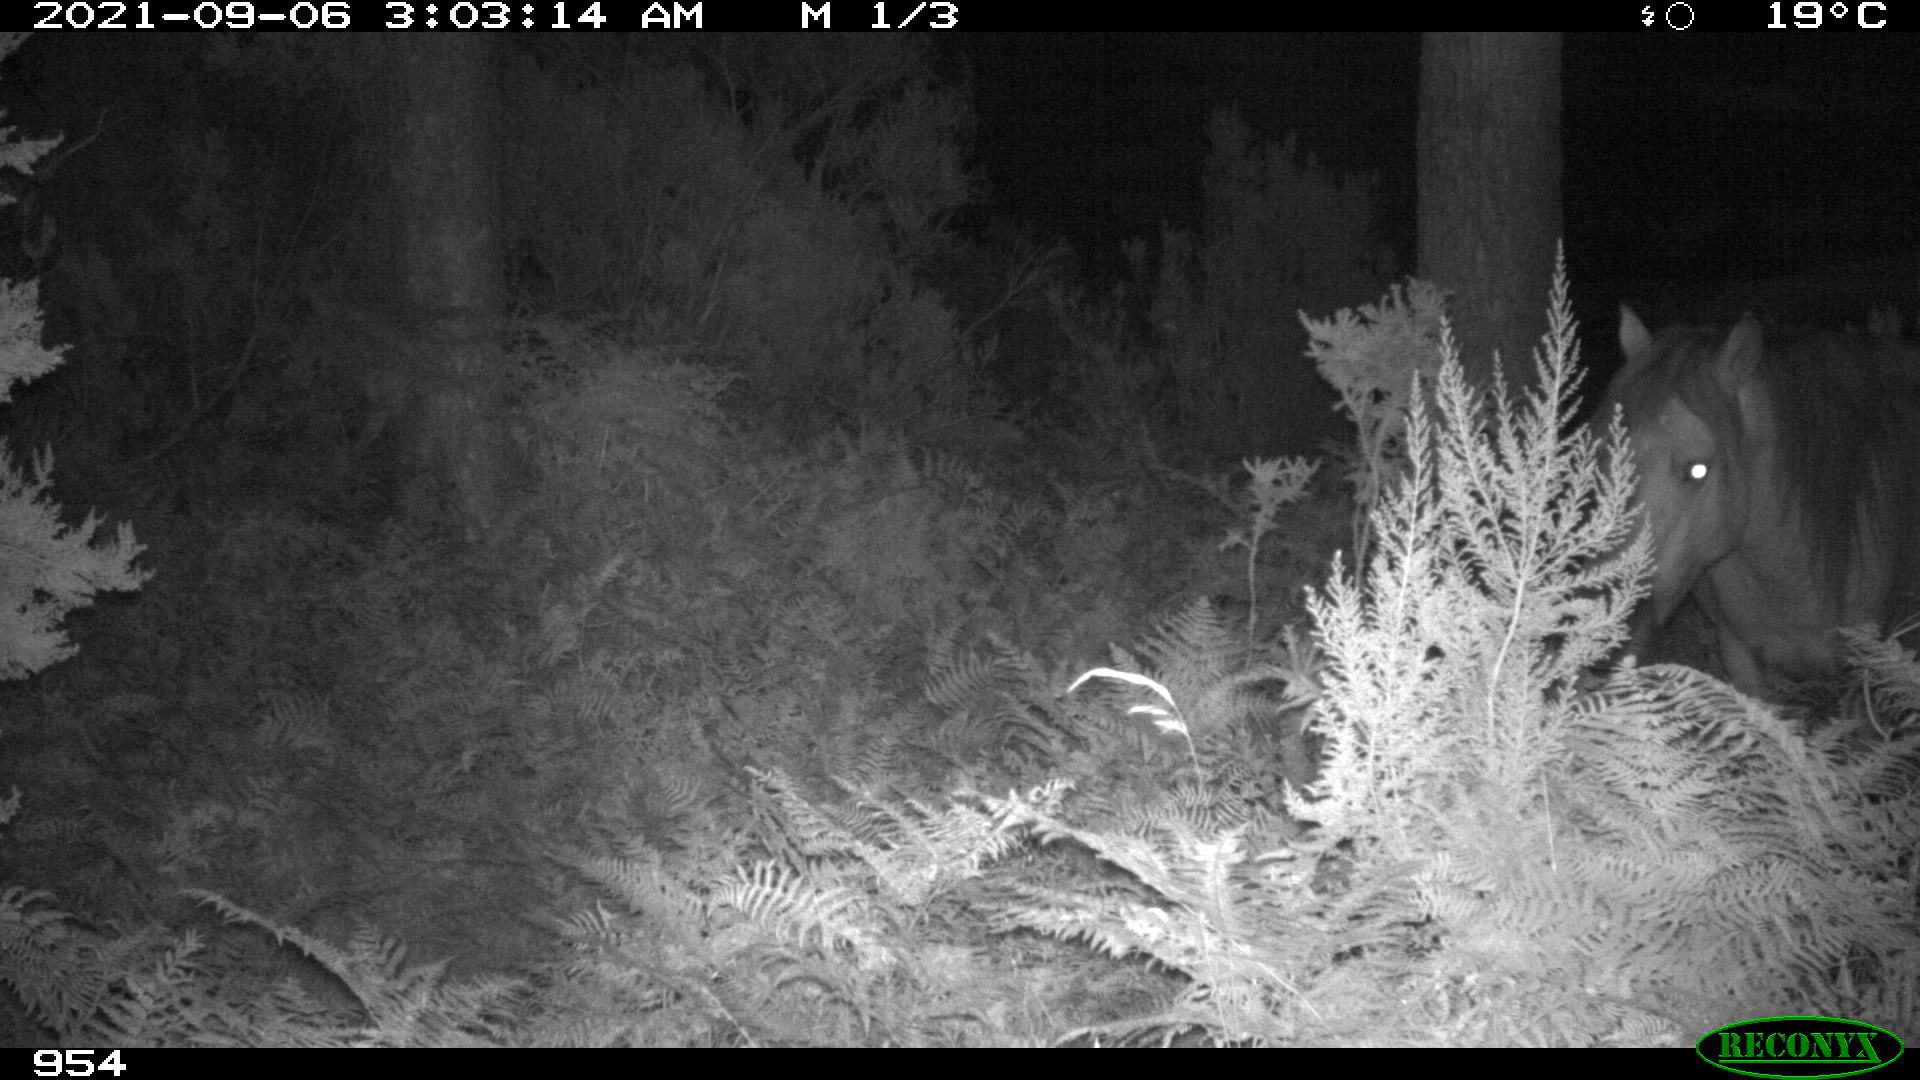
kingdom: Animalia
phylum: Chordata
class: Mammalia
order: Perissodactyla
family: Equidae
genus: Equus
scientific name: Equus caballus
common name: Horse
